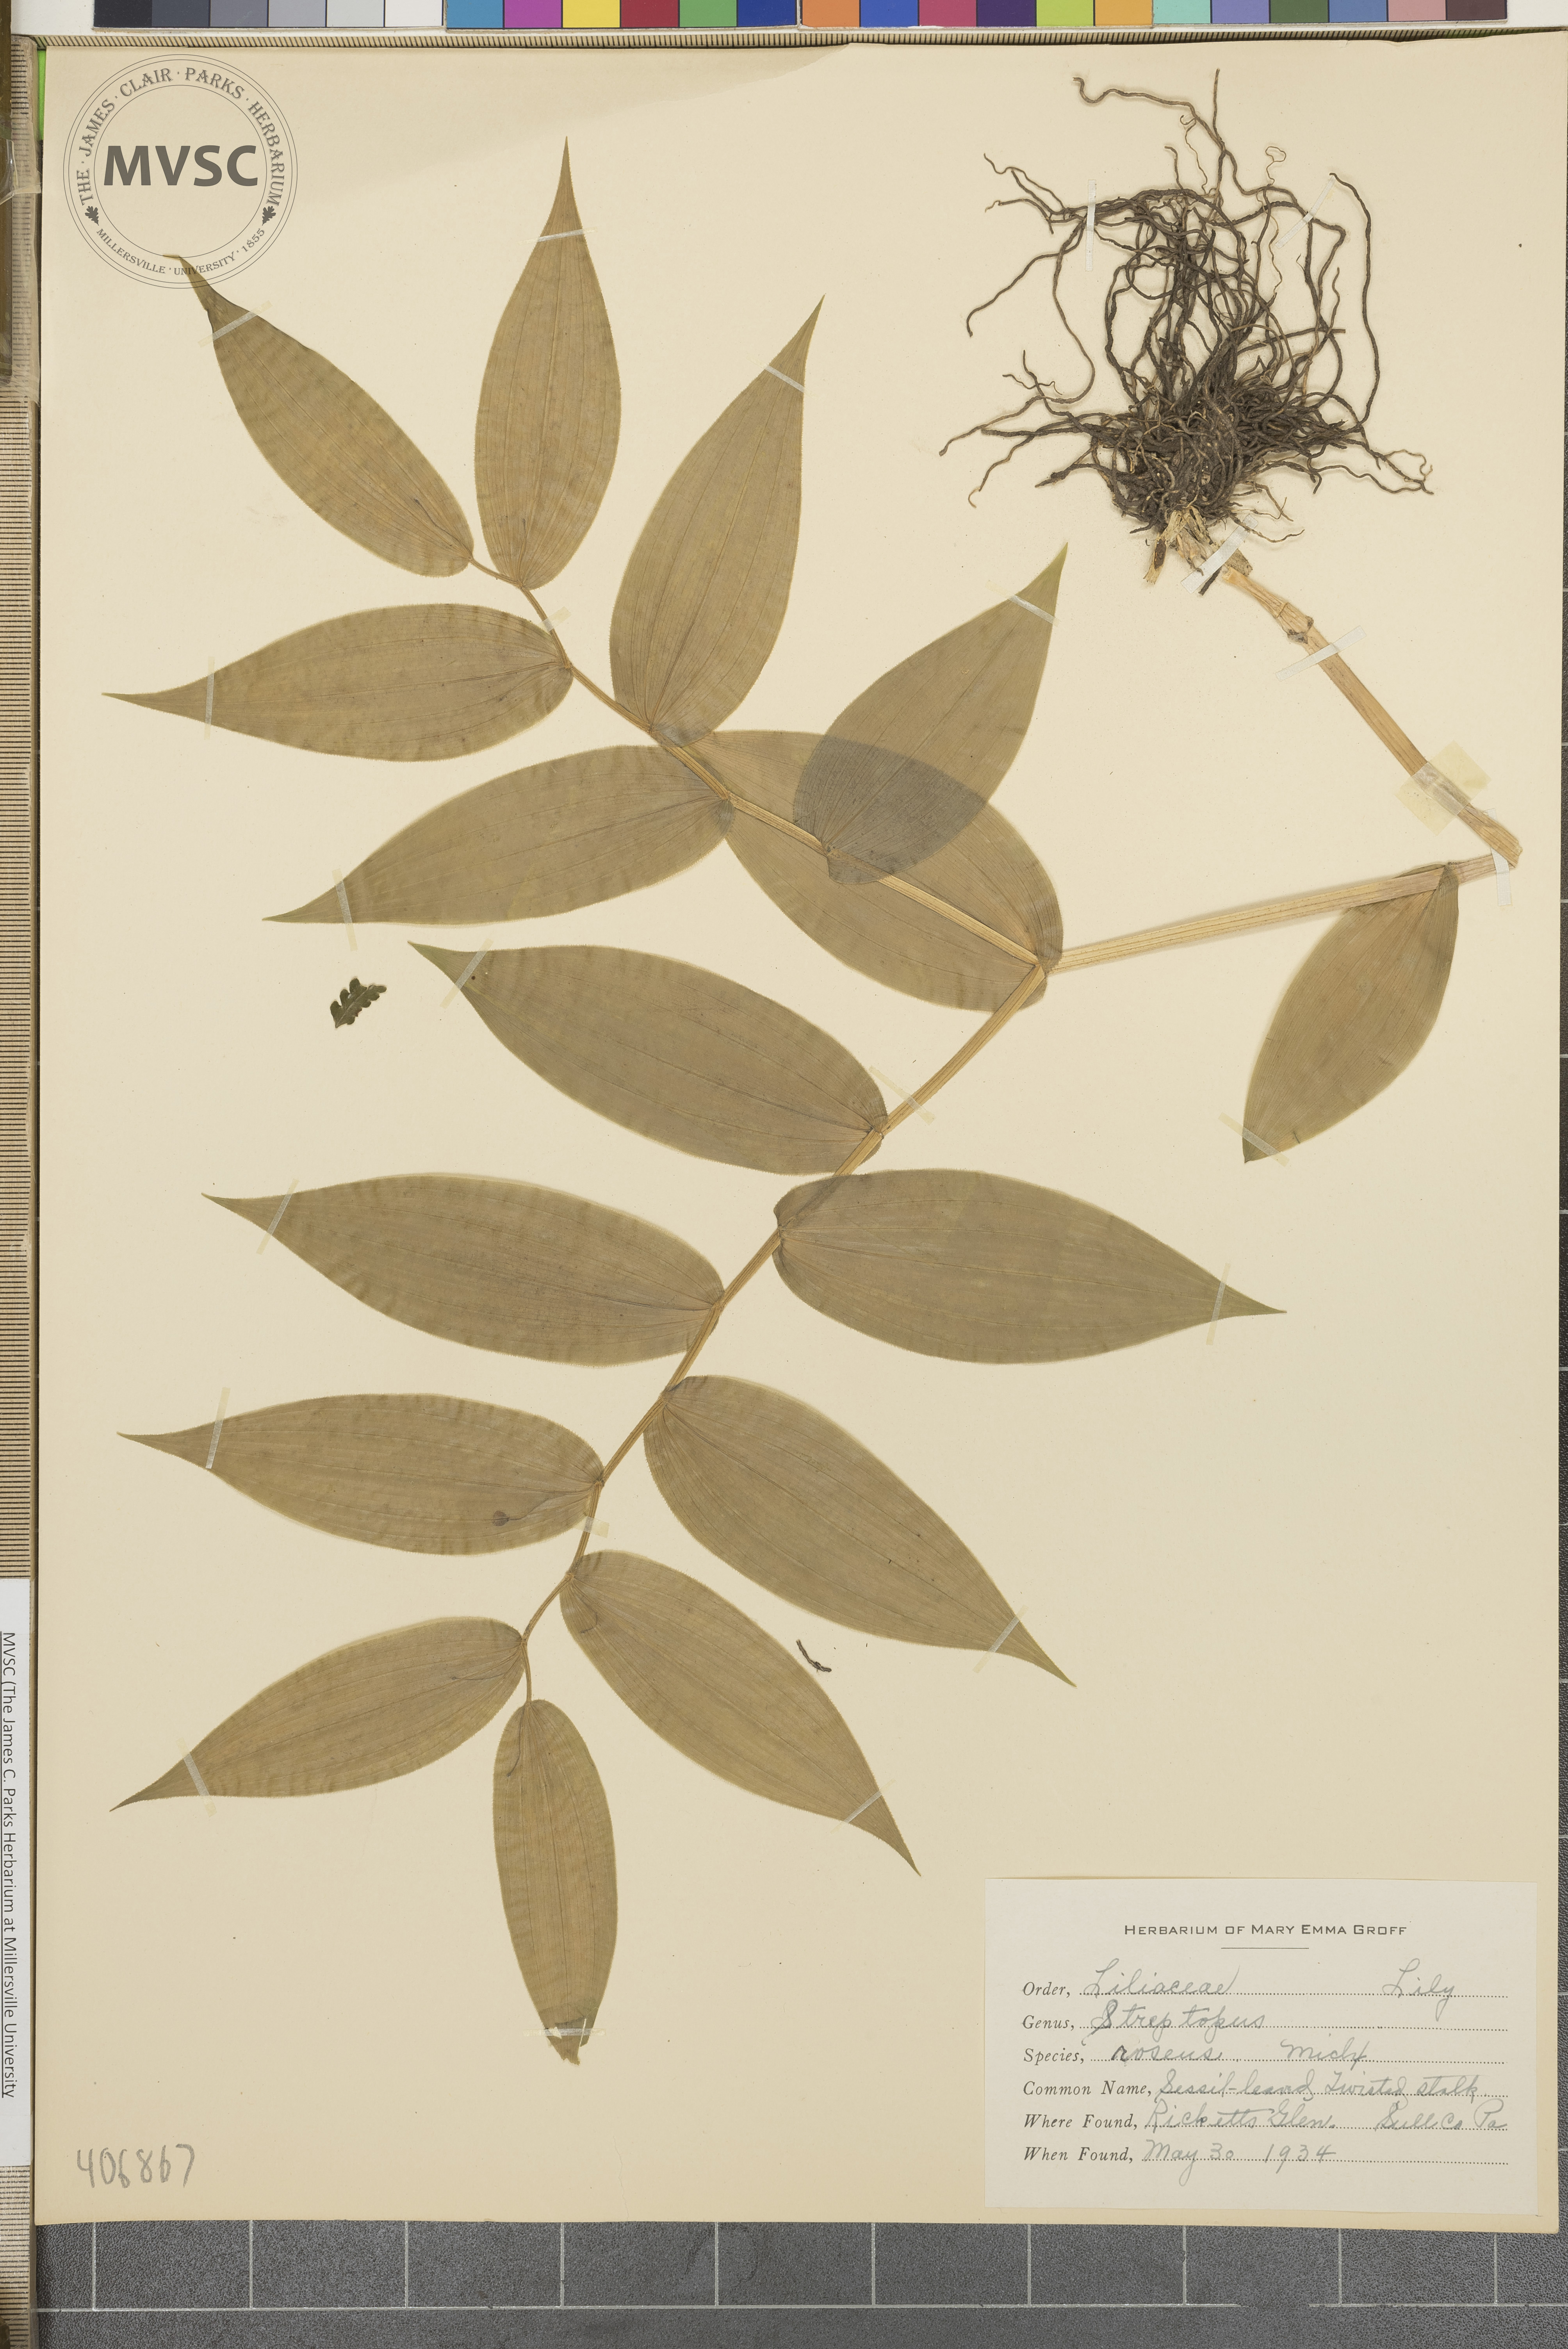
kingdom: Plantae
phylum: Tracheophyta
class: Liliopsida
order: Liliales
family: Liliaceae
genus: Streptopus
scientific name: Streptopus lanceolatus
